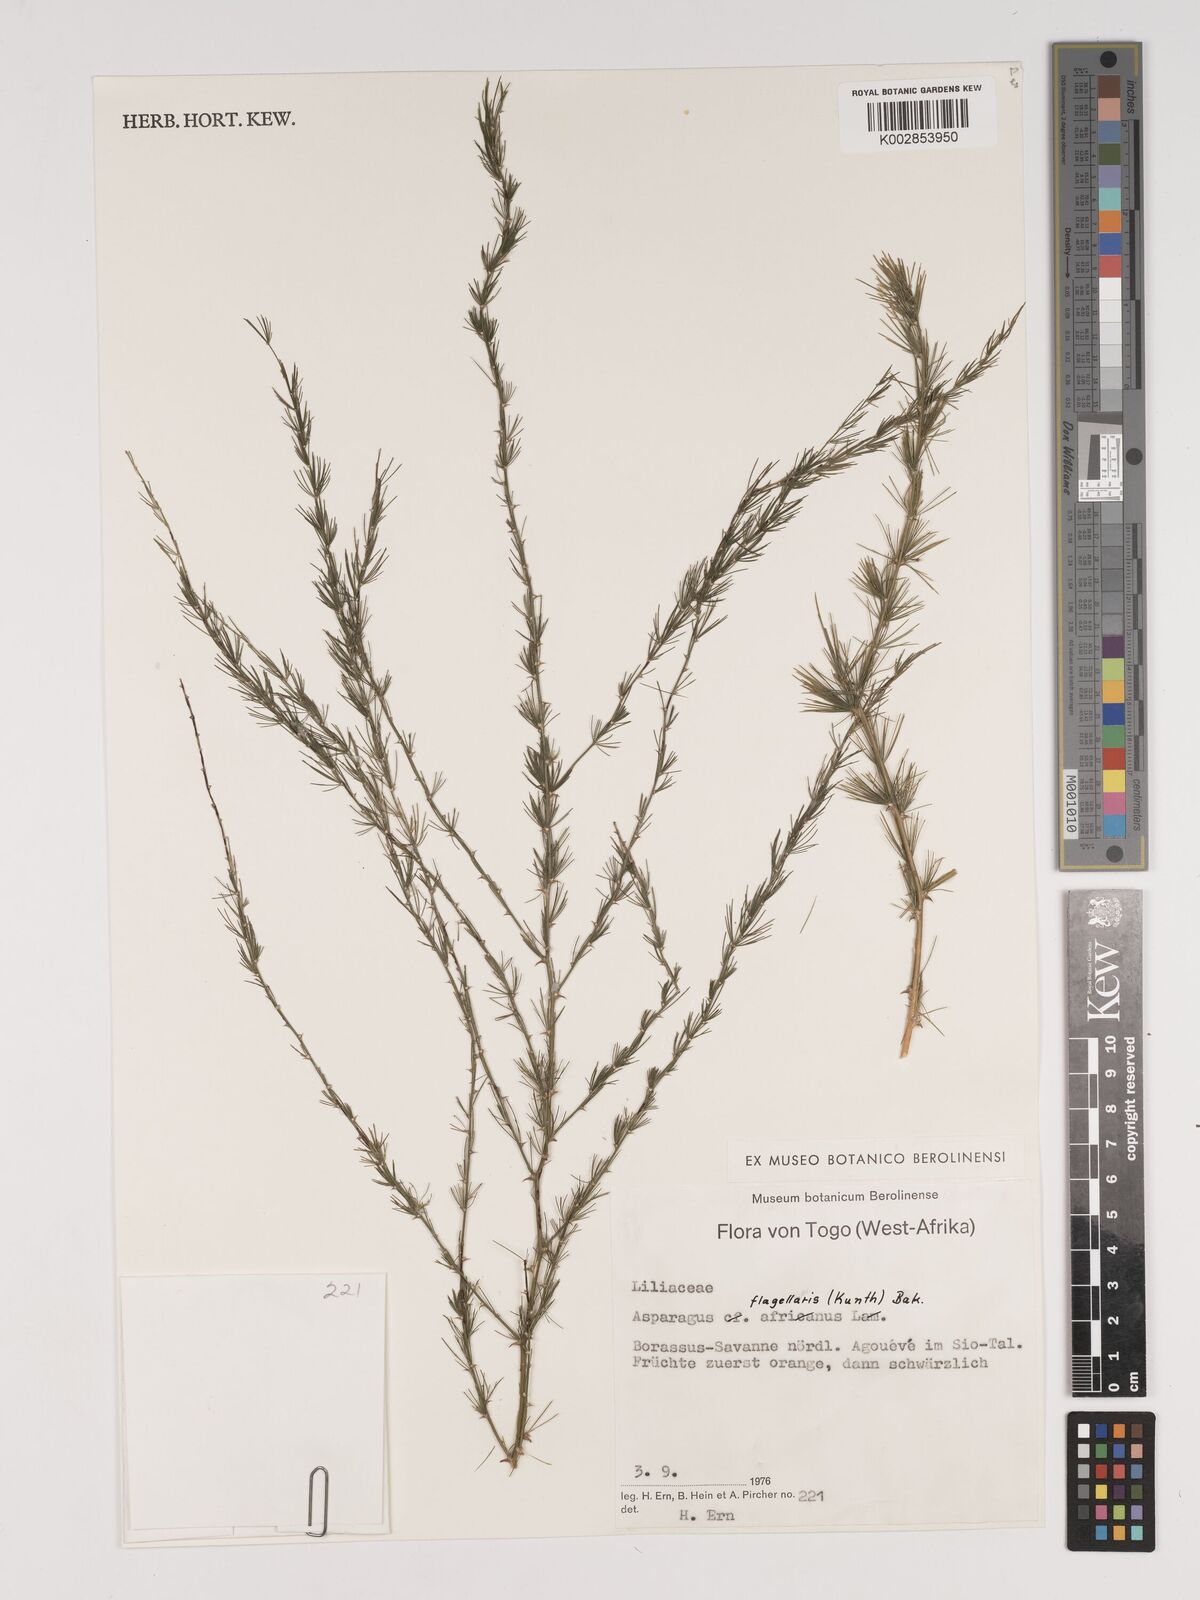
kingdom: Plantae
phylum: Tracheophyta
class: Liliopsida
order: Asparagales
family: Asparagaceae
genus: Asparagus
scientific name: Asparagus flagellaris
